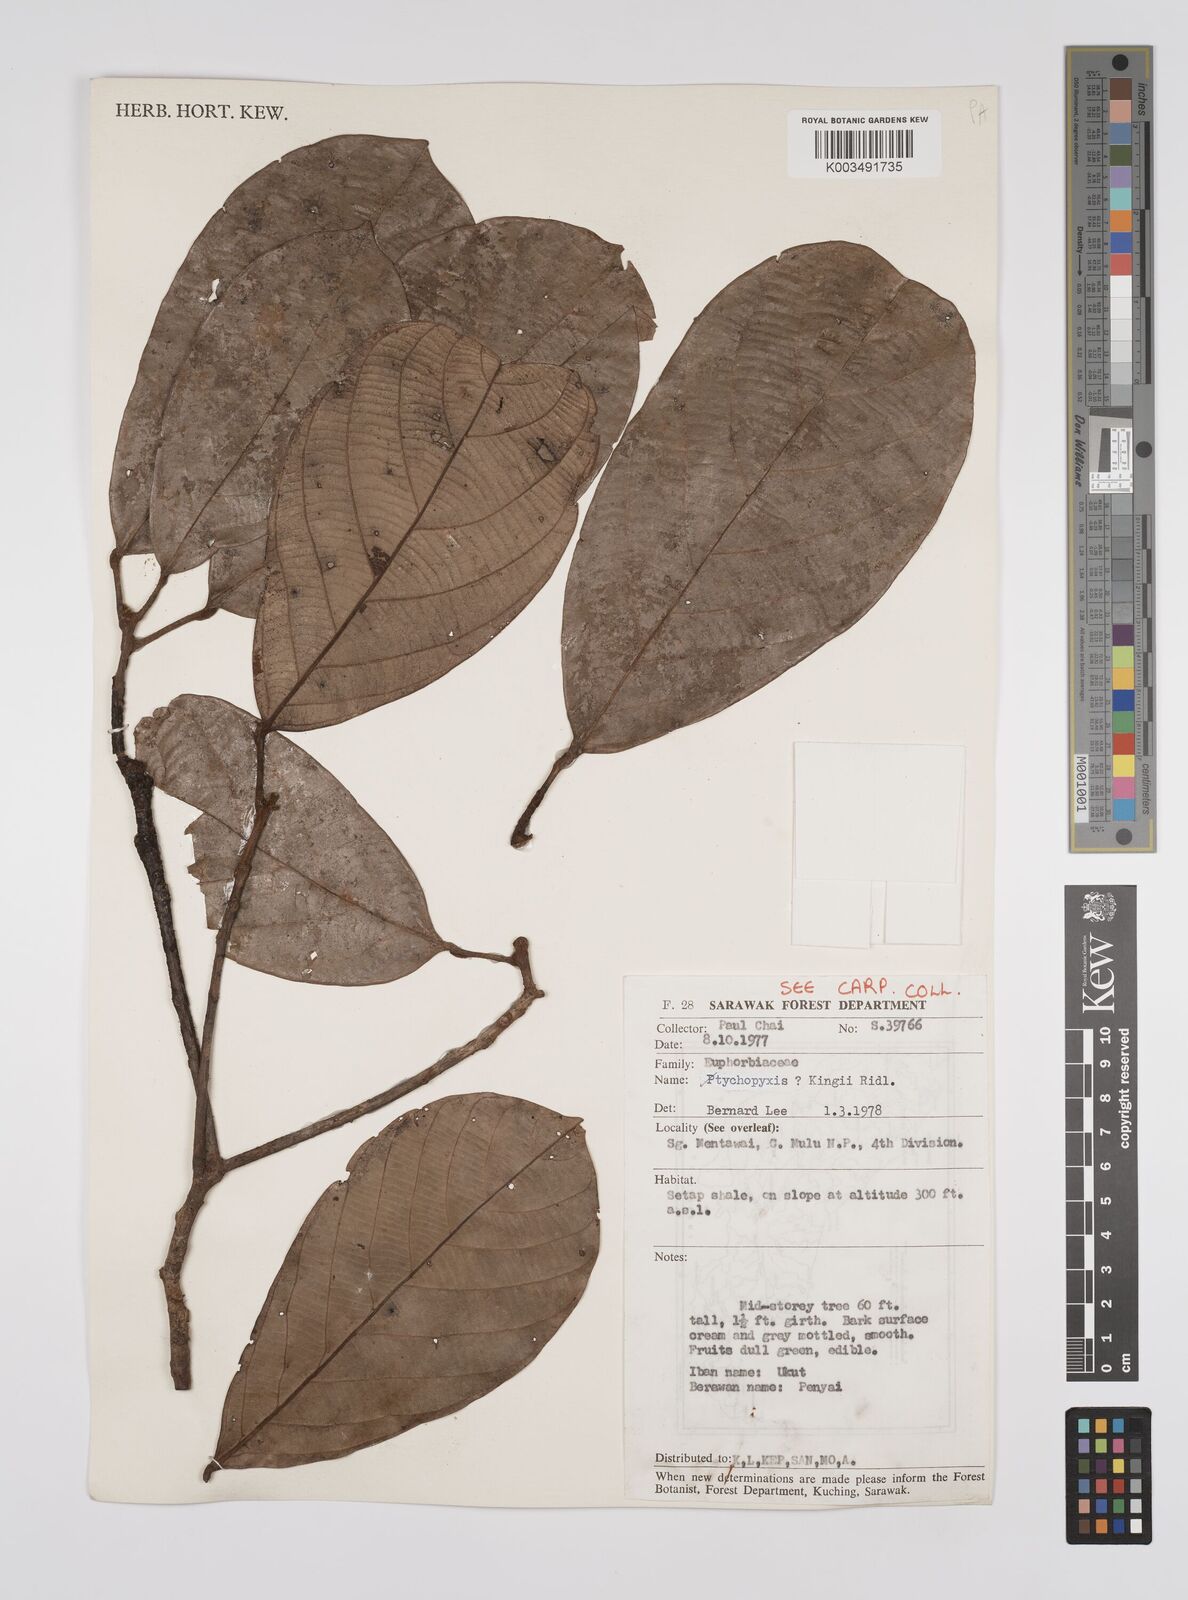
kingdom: Plantae
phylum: Tracheophyta
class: Magnoliopsida
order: Malpighiales
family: Euphorbiaceae
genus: Ptychopyxis
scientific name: Ptychopyxis kingii
